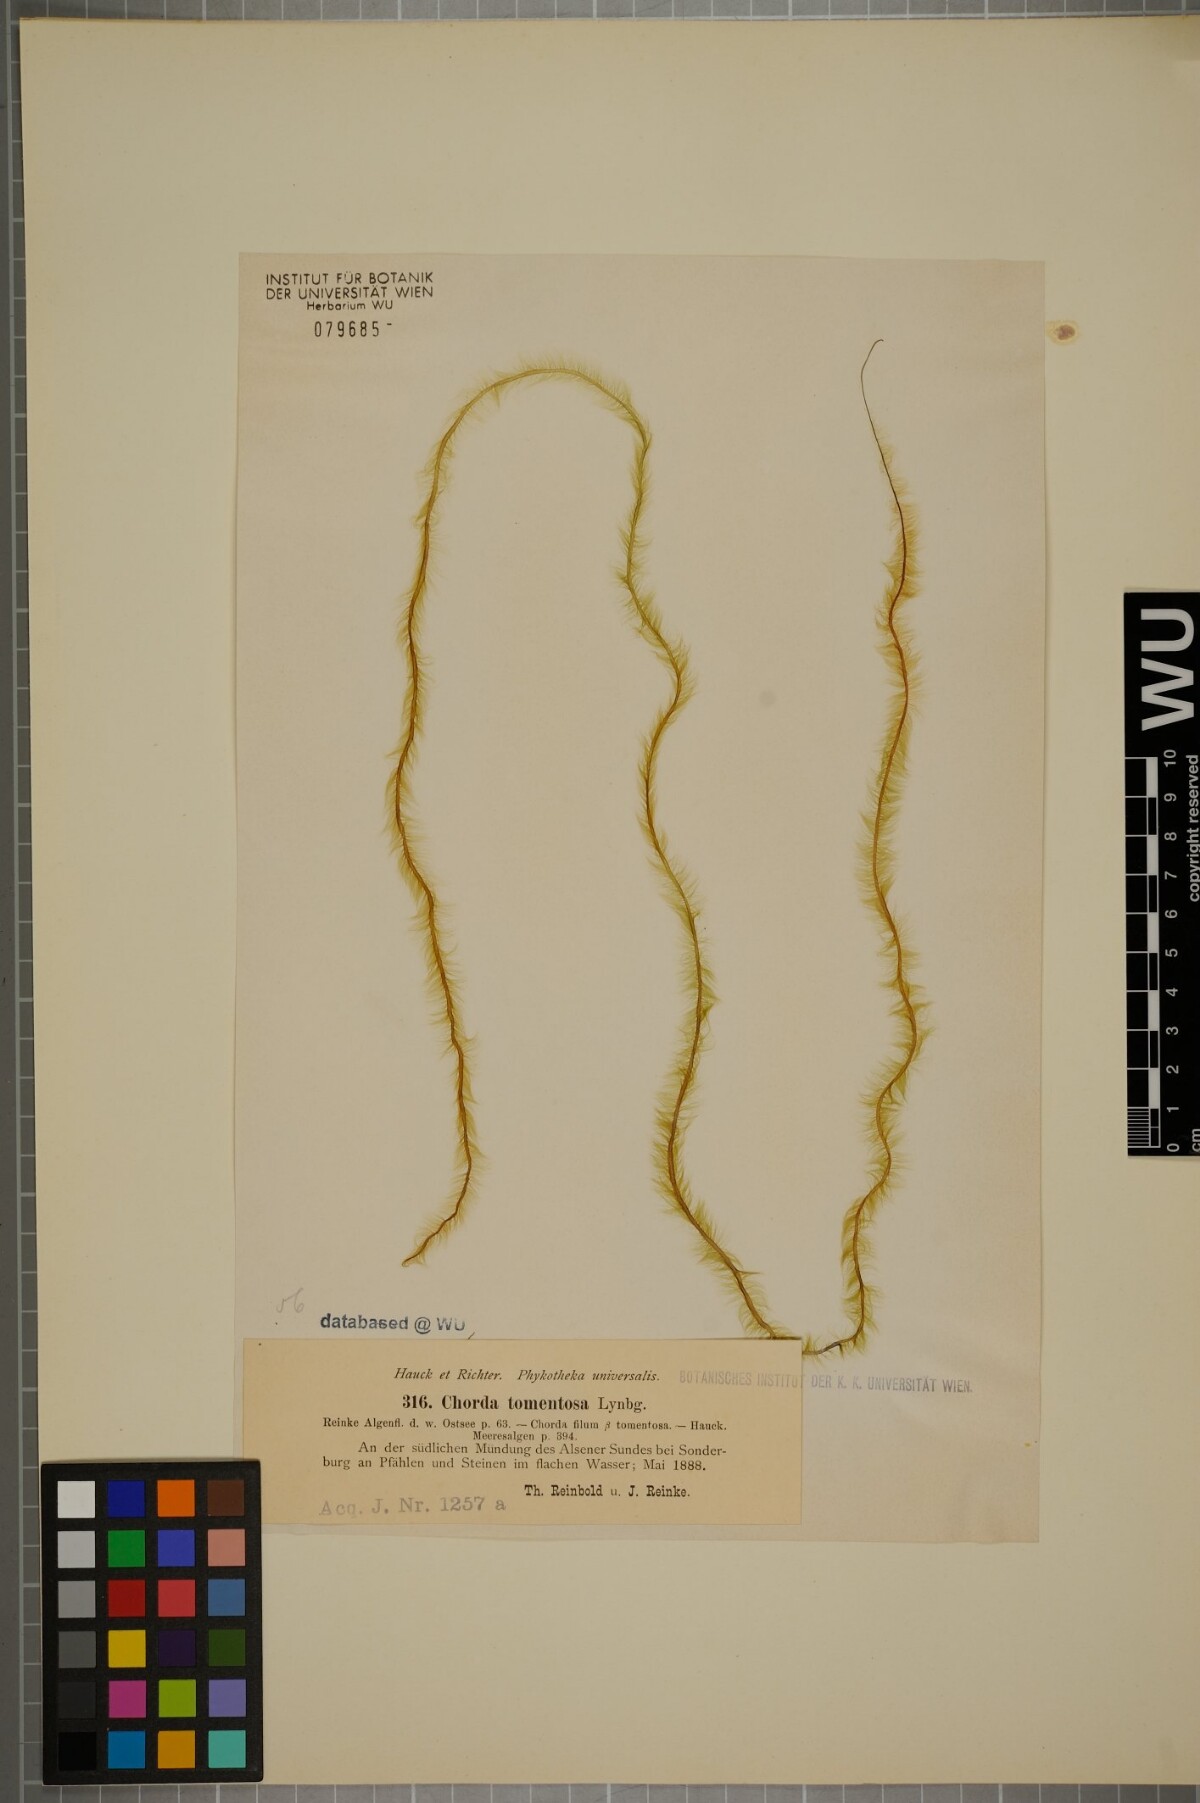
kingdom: Chromista
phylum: Ochrophyta
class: Phaeophyceae
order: Tilopteridales
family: Halosiphonaceae
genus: Halosiphon
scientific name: Halosiphon tomentosus
